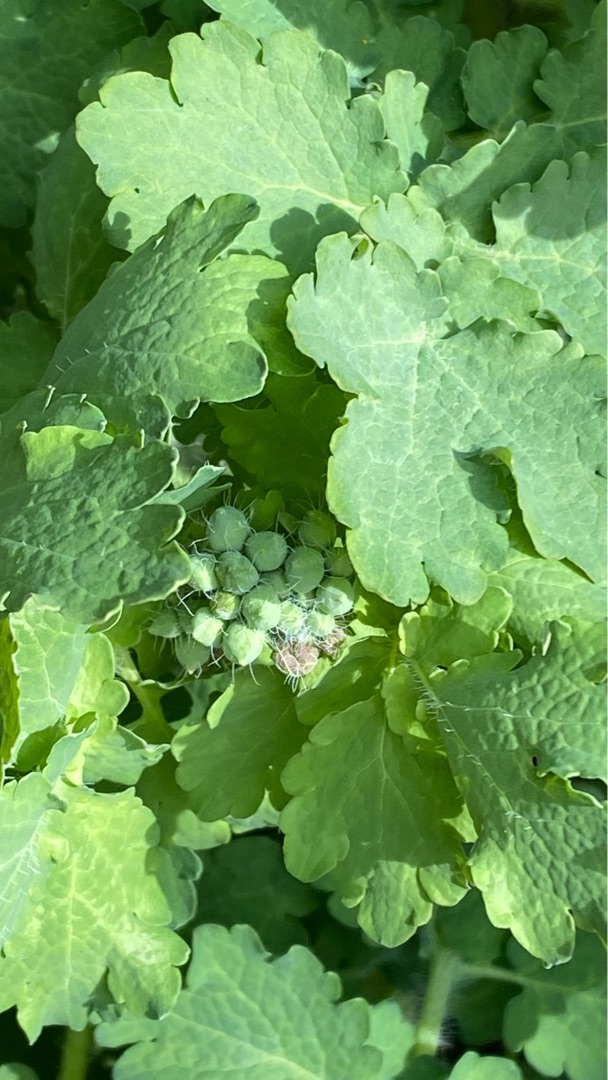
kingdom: Plantae
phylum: Tracheophyta
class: Magnoliopsida
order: Ranunculales
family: Papaveraceae
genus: Chelidonium
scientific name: Chelidonium majus
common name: Svaleurt
